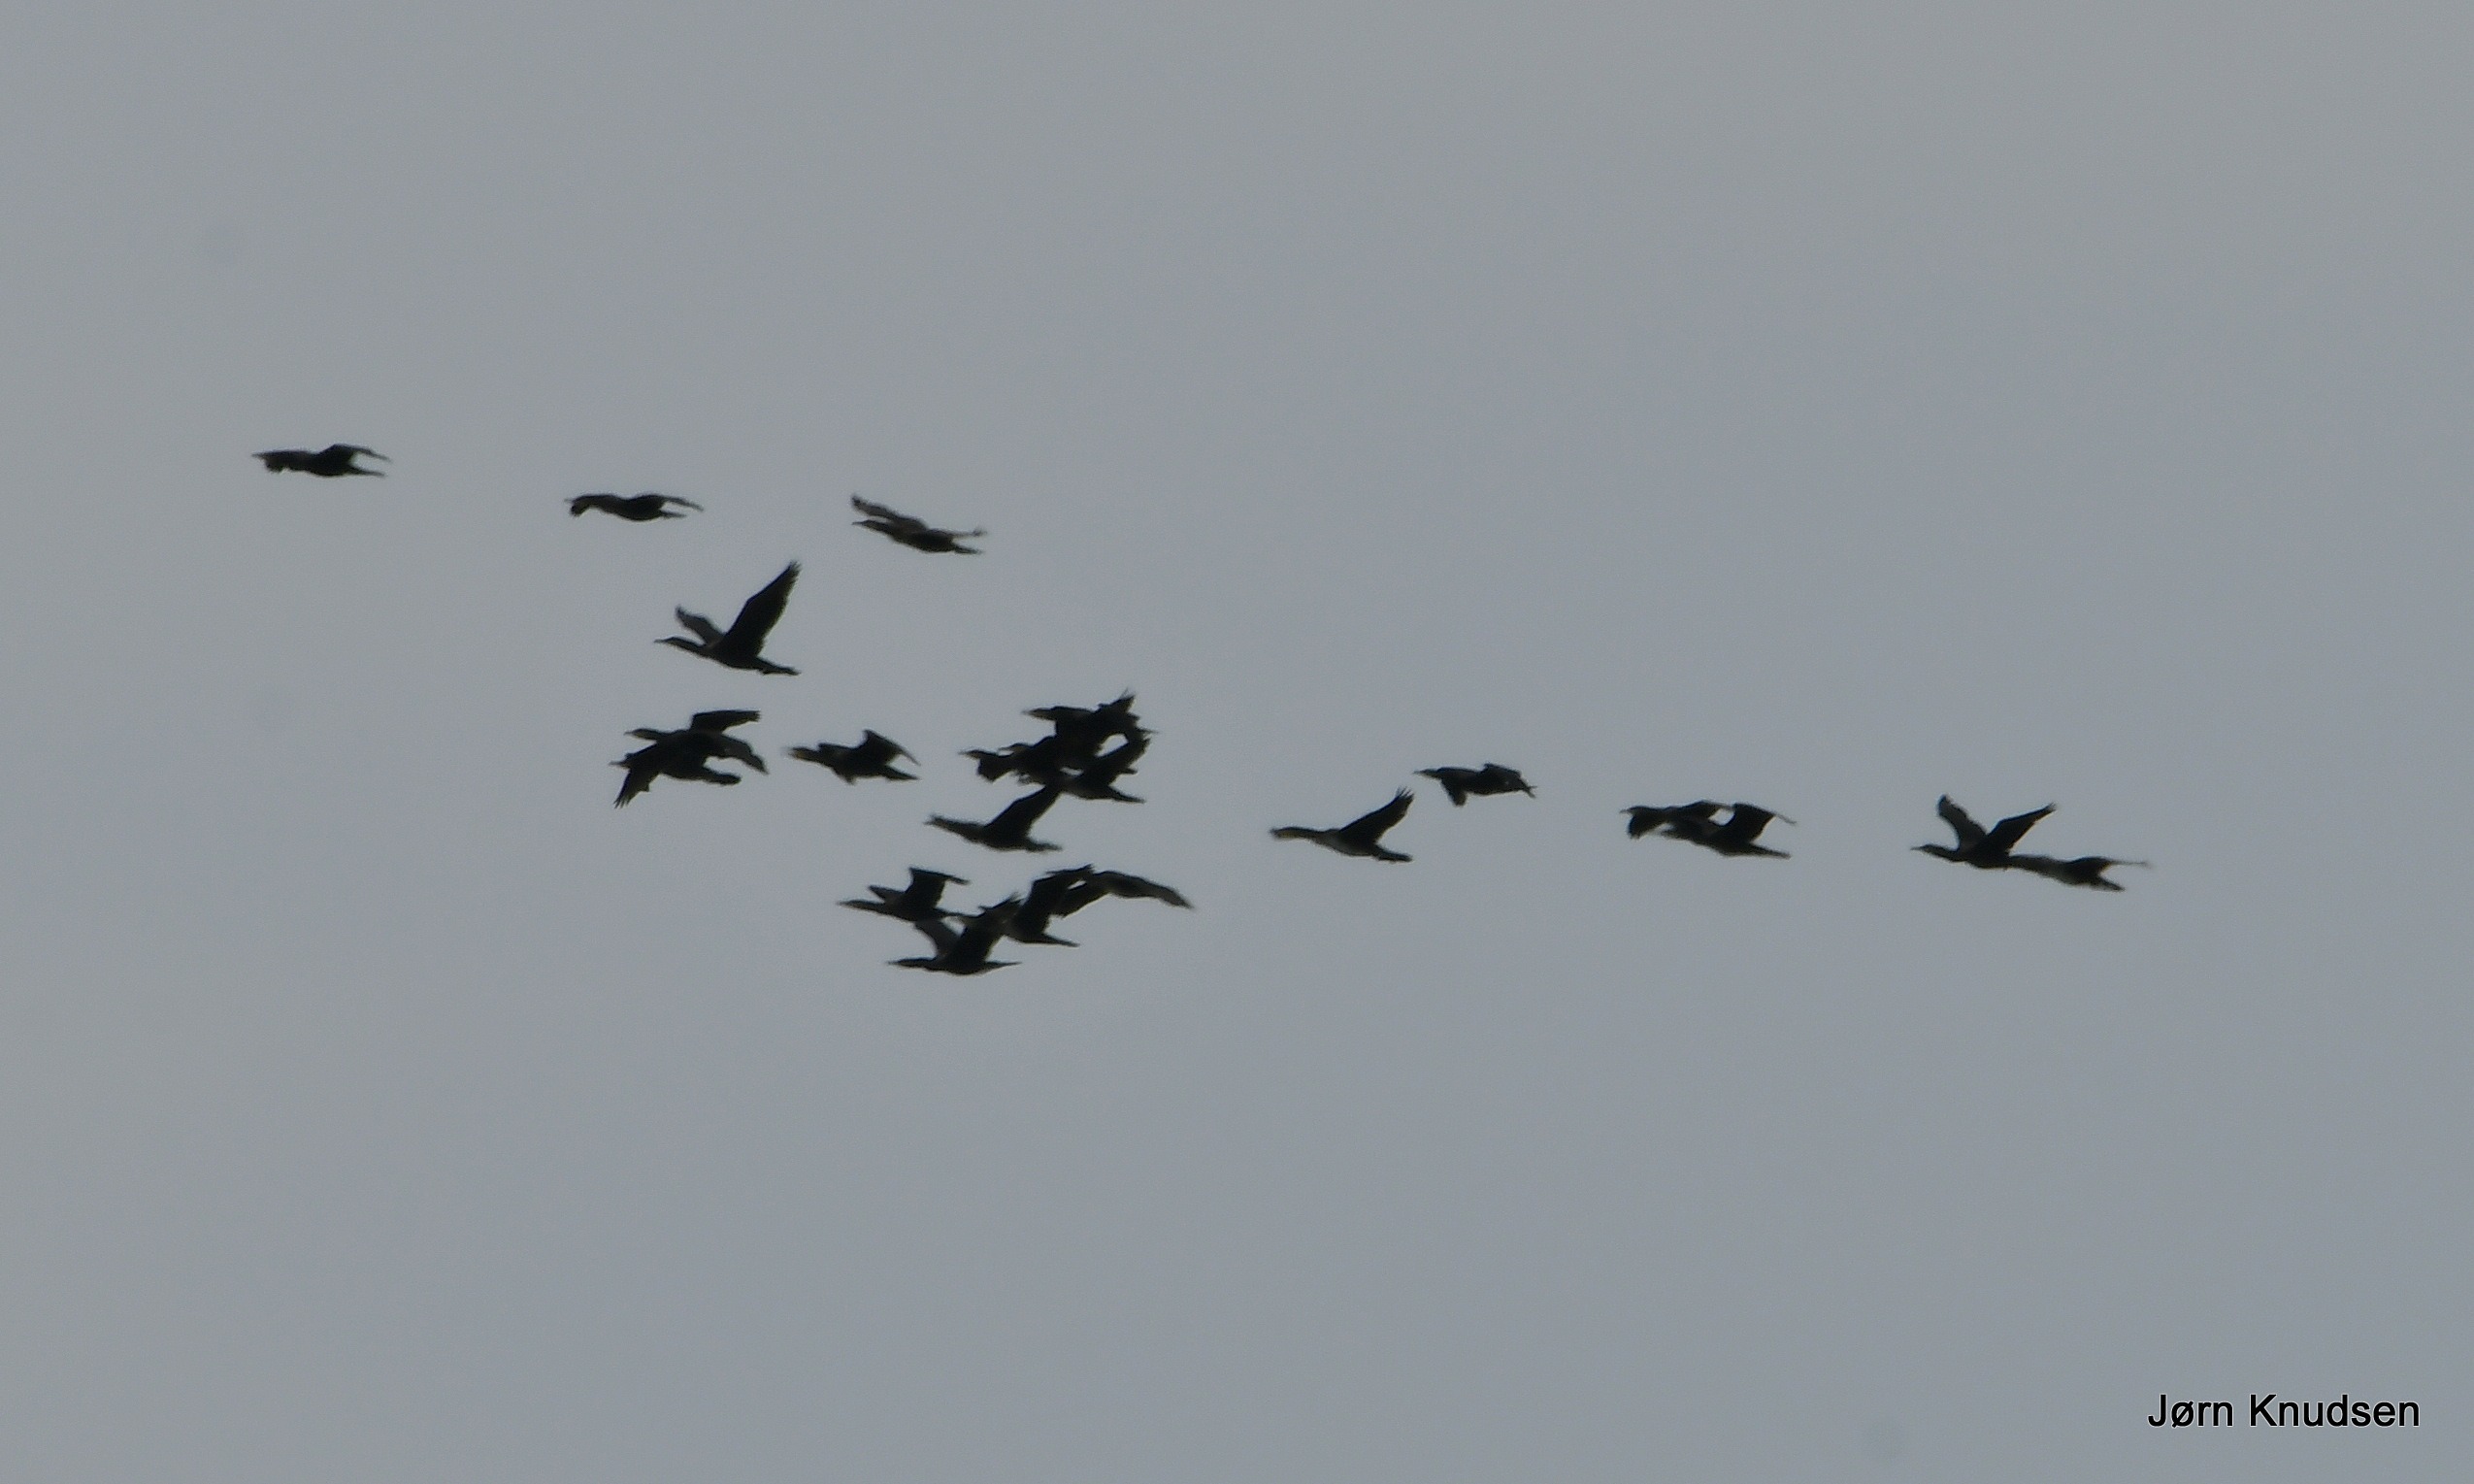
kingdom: Animalia
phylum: Chordata
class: Aves
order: Suliformes
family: Phalacrocoracidae
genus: Phalacrocorax
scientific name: Phalacrocorax carbo
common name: Skarv
